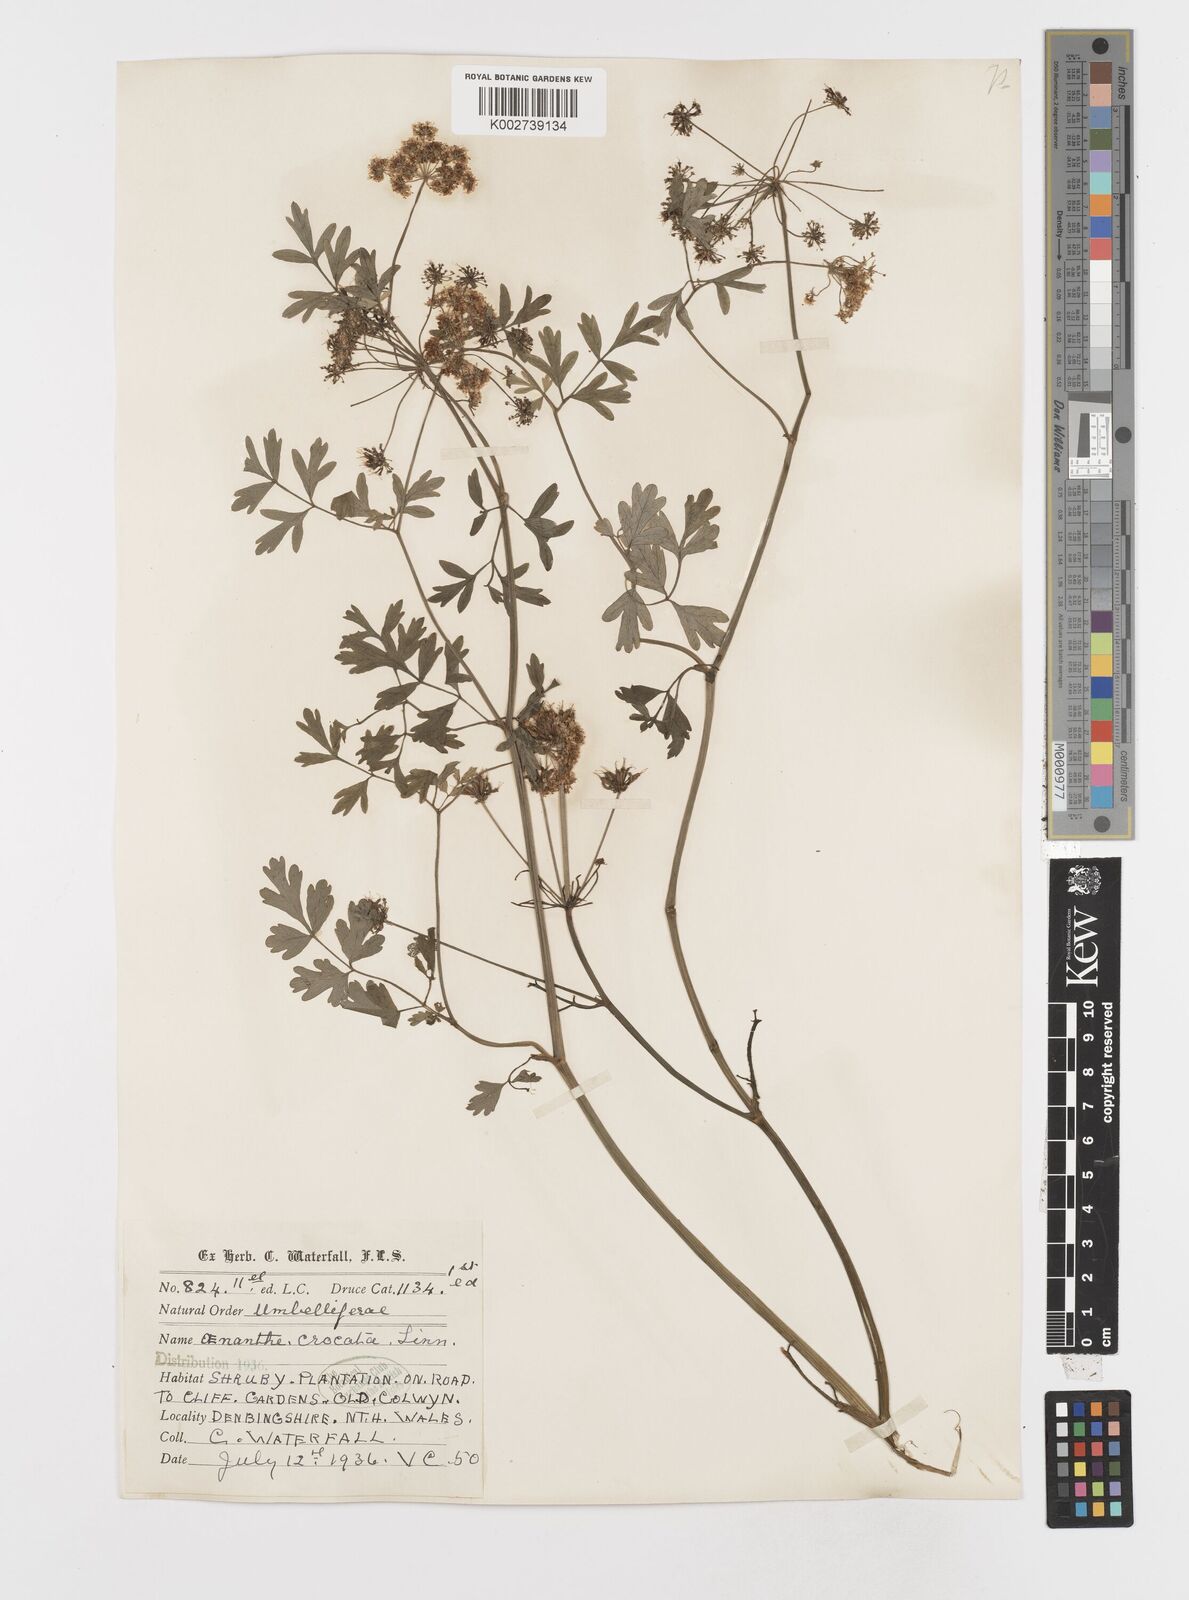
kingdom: Plantae
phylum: Tracheophyta
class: Magnoliopsida
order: Apiales
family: Apiaceae
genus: Oenanthe
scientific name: Oenanthe crocata
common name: Hemlock water-dropwort
